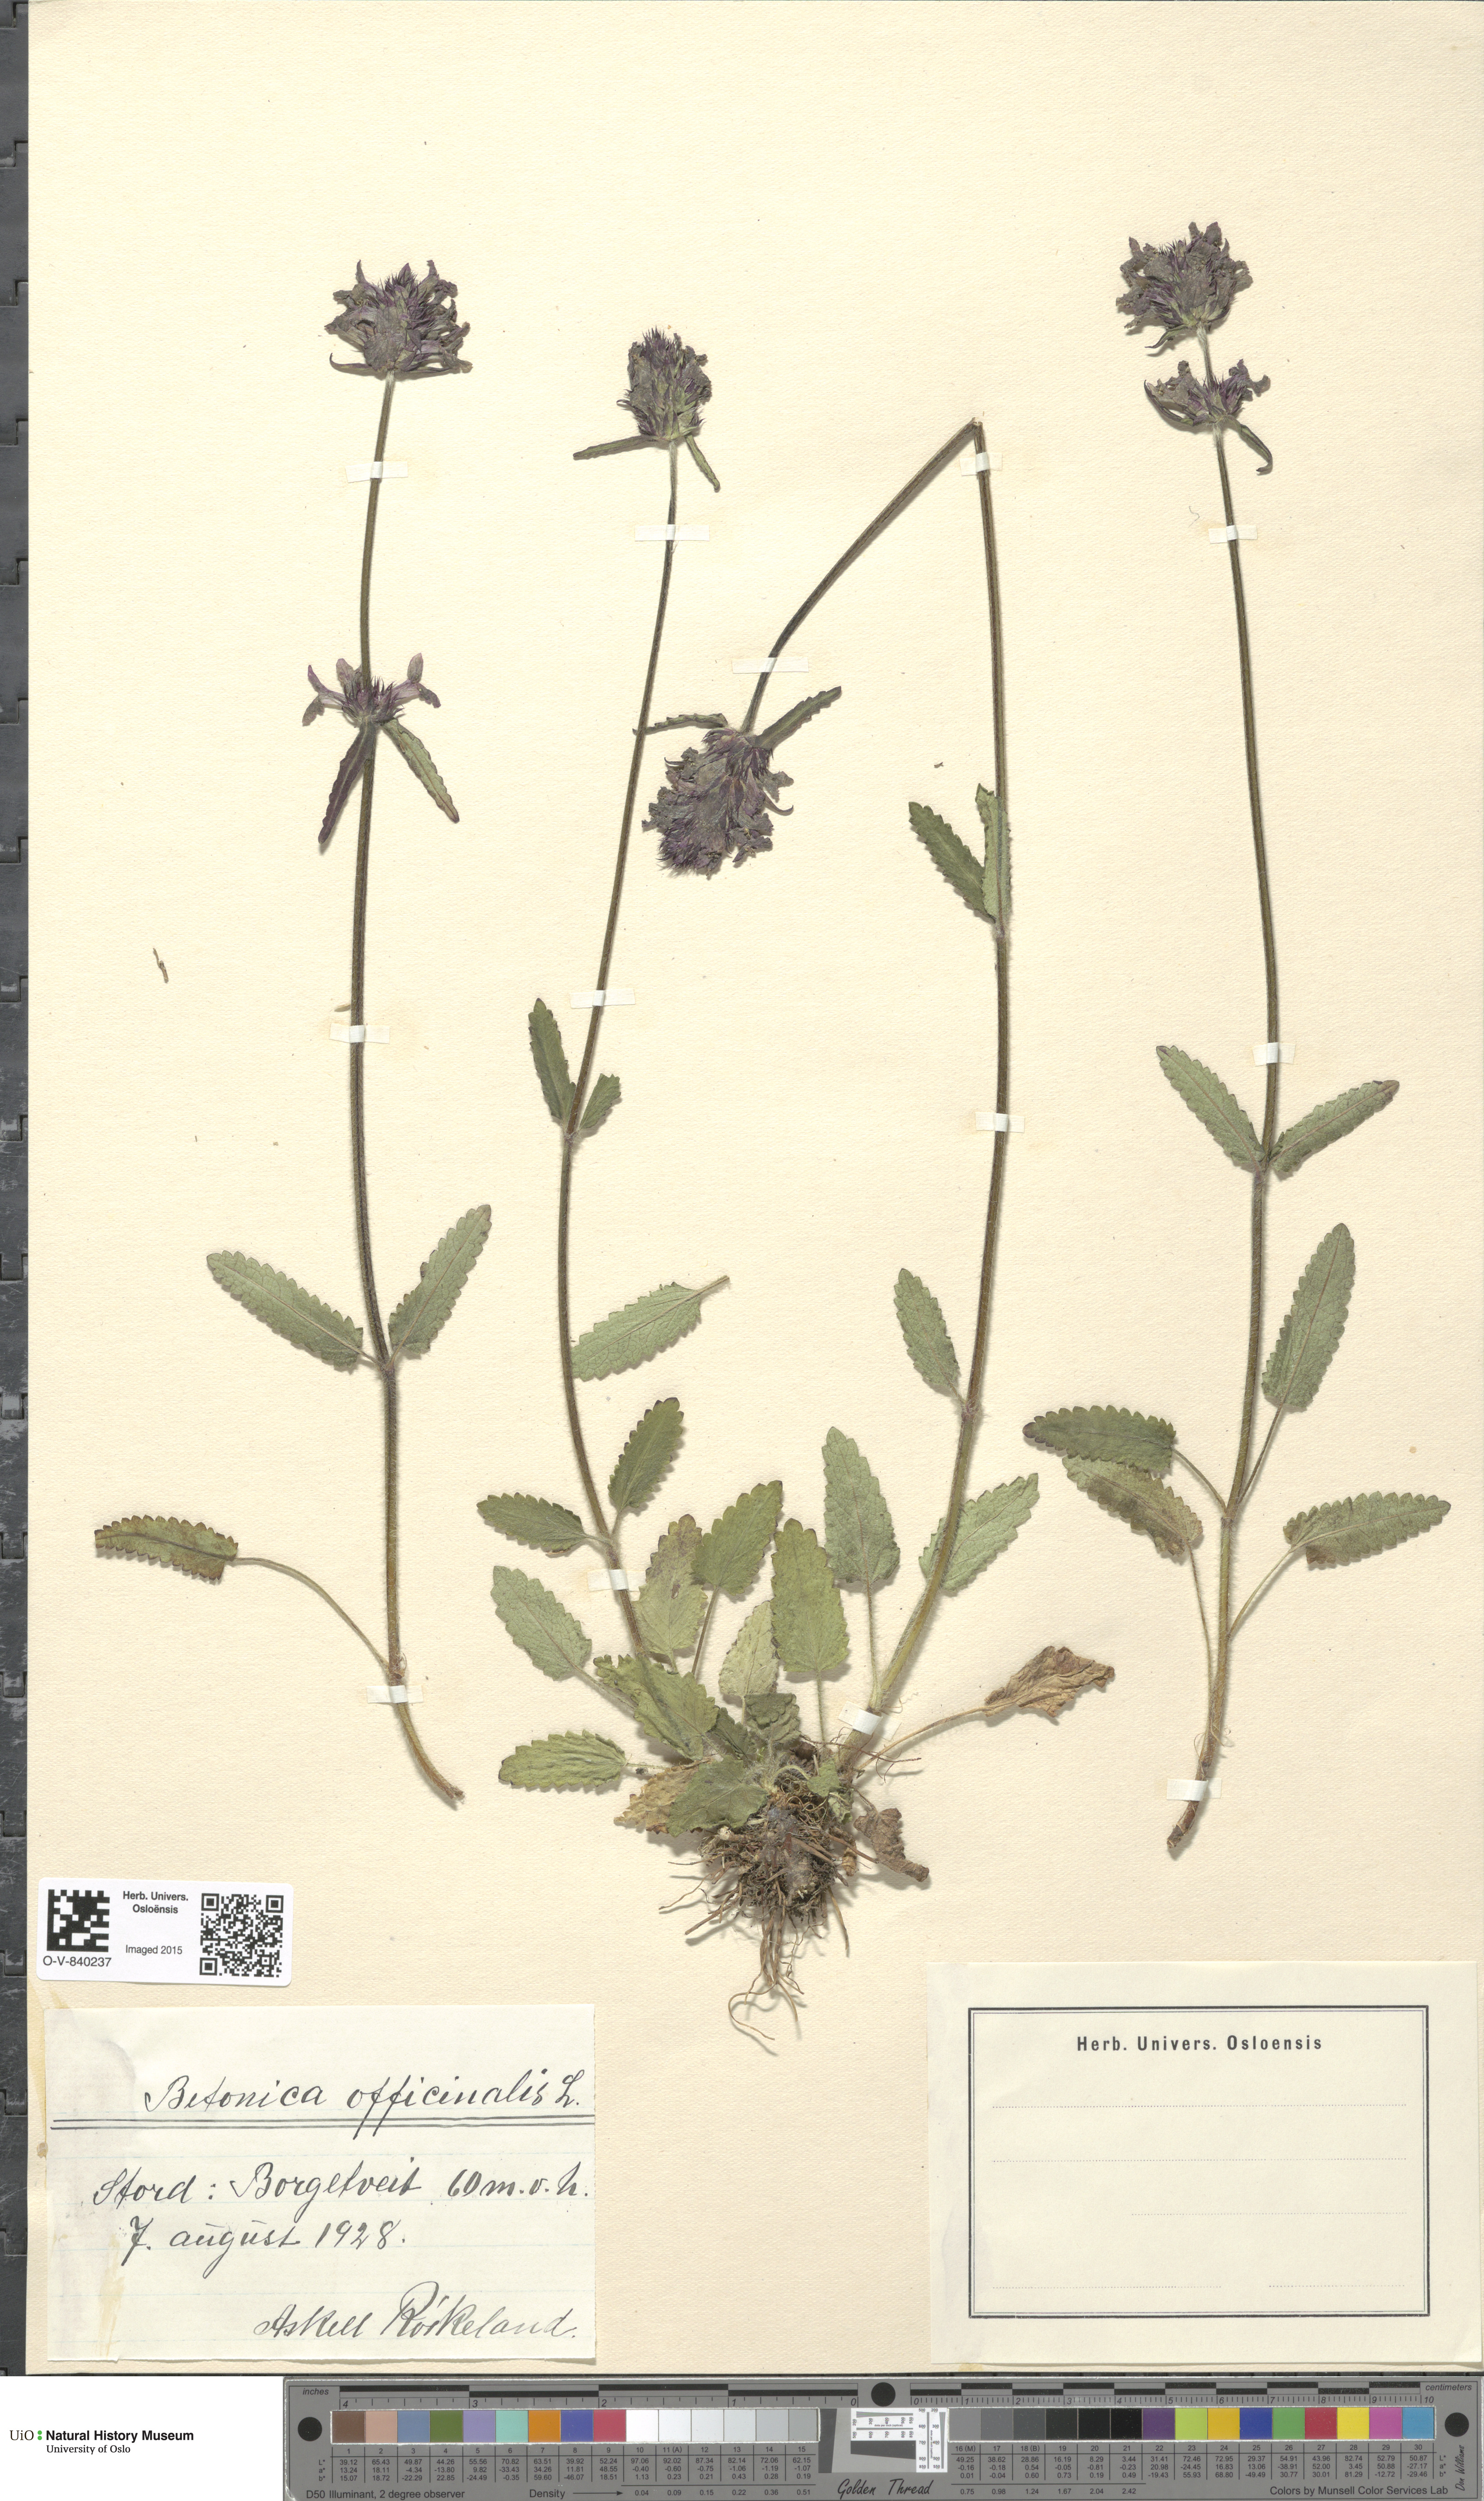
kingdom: Plantae
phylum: Tracheophyta
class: Magnoliopsida
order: Lamiales
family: Lamiaceae
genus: Betonica
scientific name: Betonica officinalis
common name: Bishop's-wort
